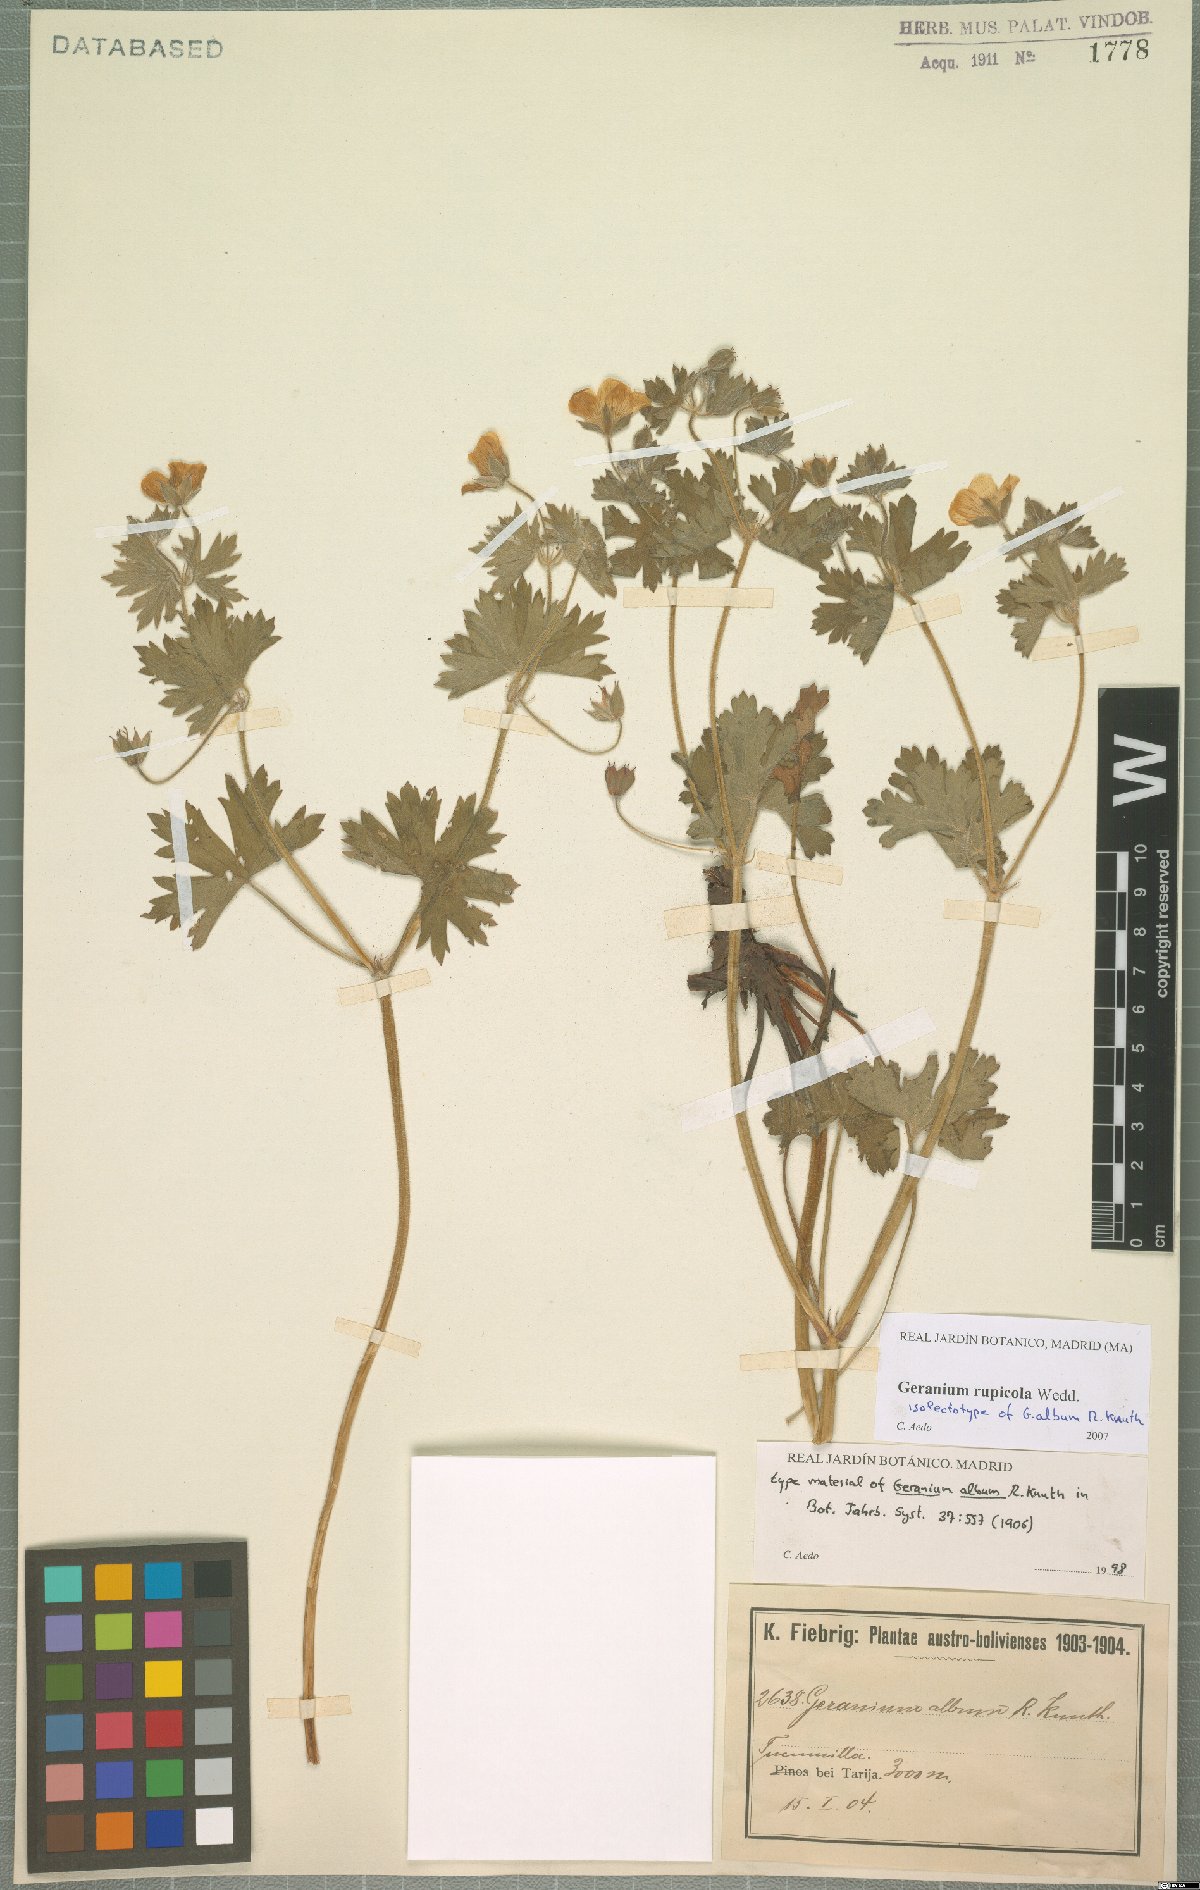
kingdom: Plantae
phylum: Tracheophyta
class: Magnoliopsida
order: Geraniales
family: Geraniaceae
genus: Geranium
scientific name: Geranium rupicola
